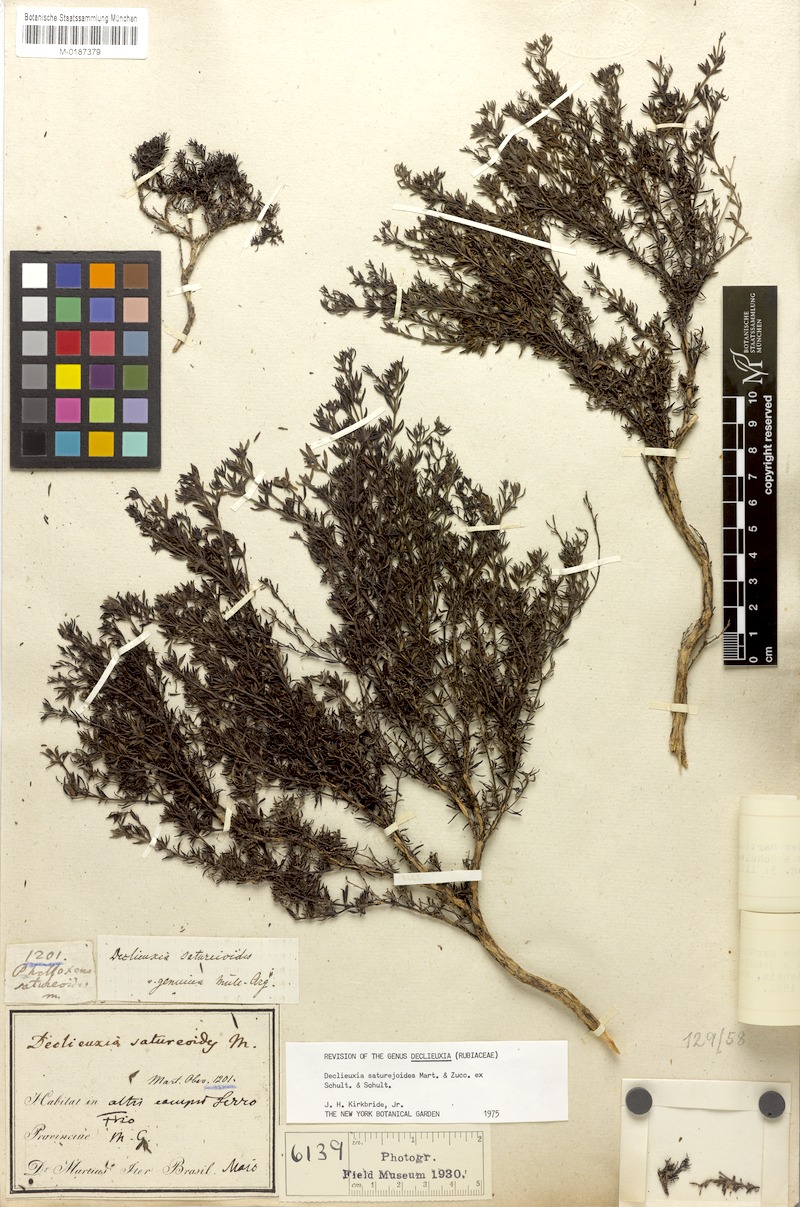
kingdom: Plantae
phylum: Tracheophyta
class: Magnoliopsida
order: Gentianales
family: Rubiaceae
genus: Declieuxia
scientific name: Declieuxia saturejoides
